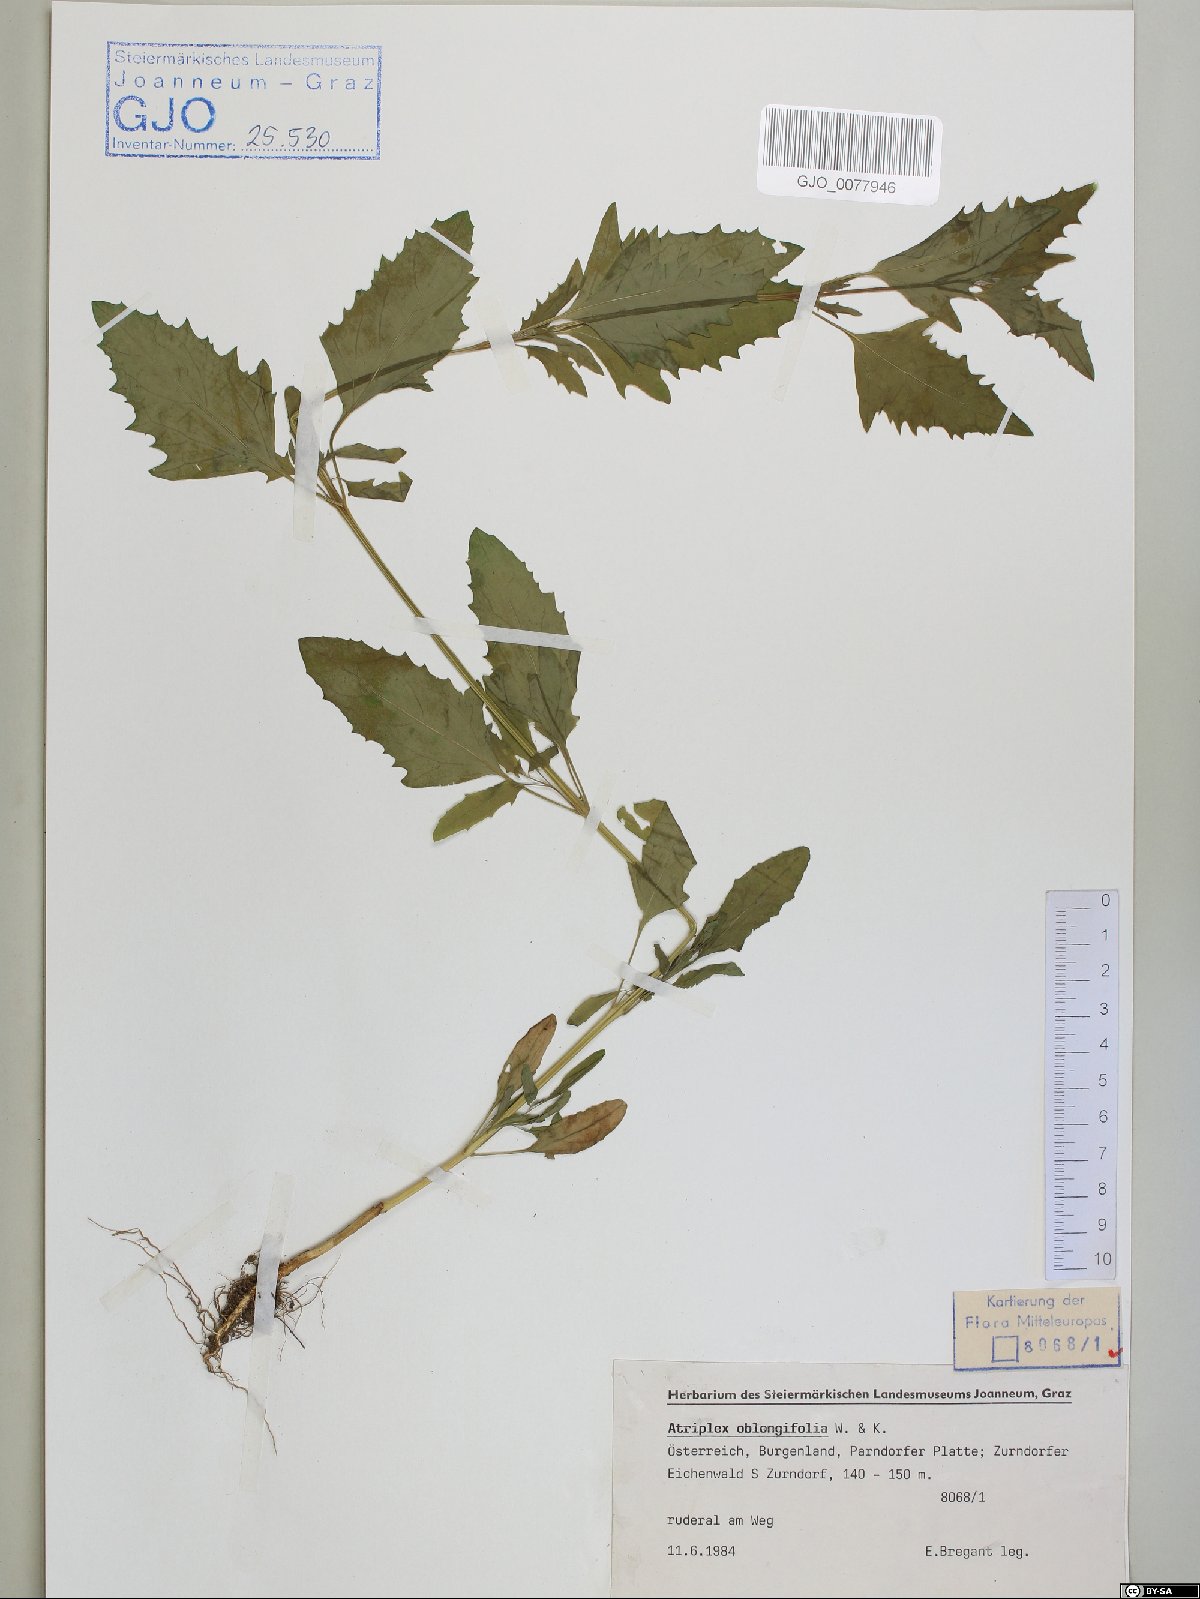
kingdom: Plantae
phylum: Tracheophyta
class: Magnoliopsida
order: Caryophyllales
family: Amaranthaceae
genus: Atriplex
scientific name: Atriplex oblongifolia
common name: Oblongleaf orache
